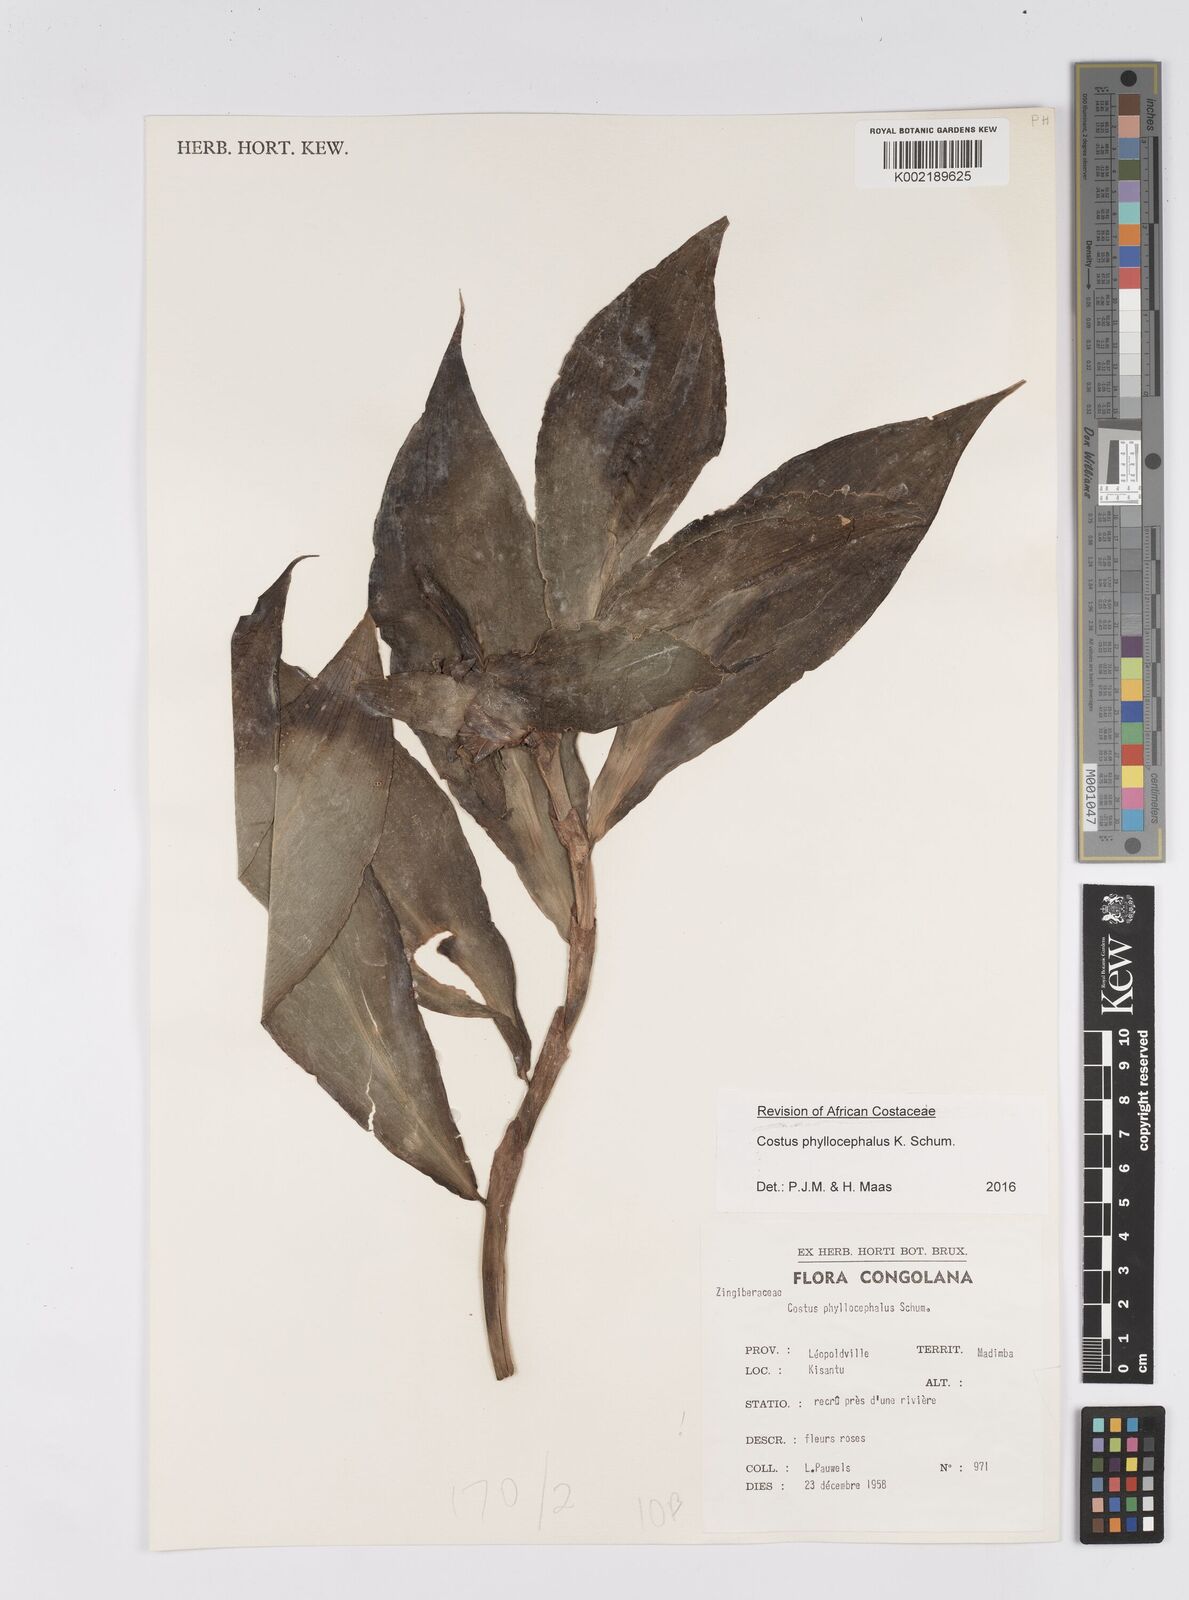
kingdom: Plantae
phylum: Tracheophyta
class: Liliopsida
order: Zingiberales
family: Costaceae
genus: Costus
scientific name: Costus phyllocephalus
